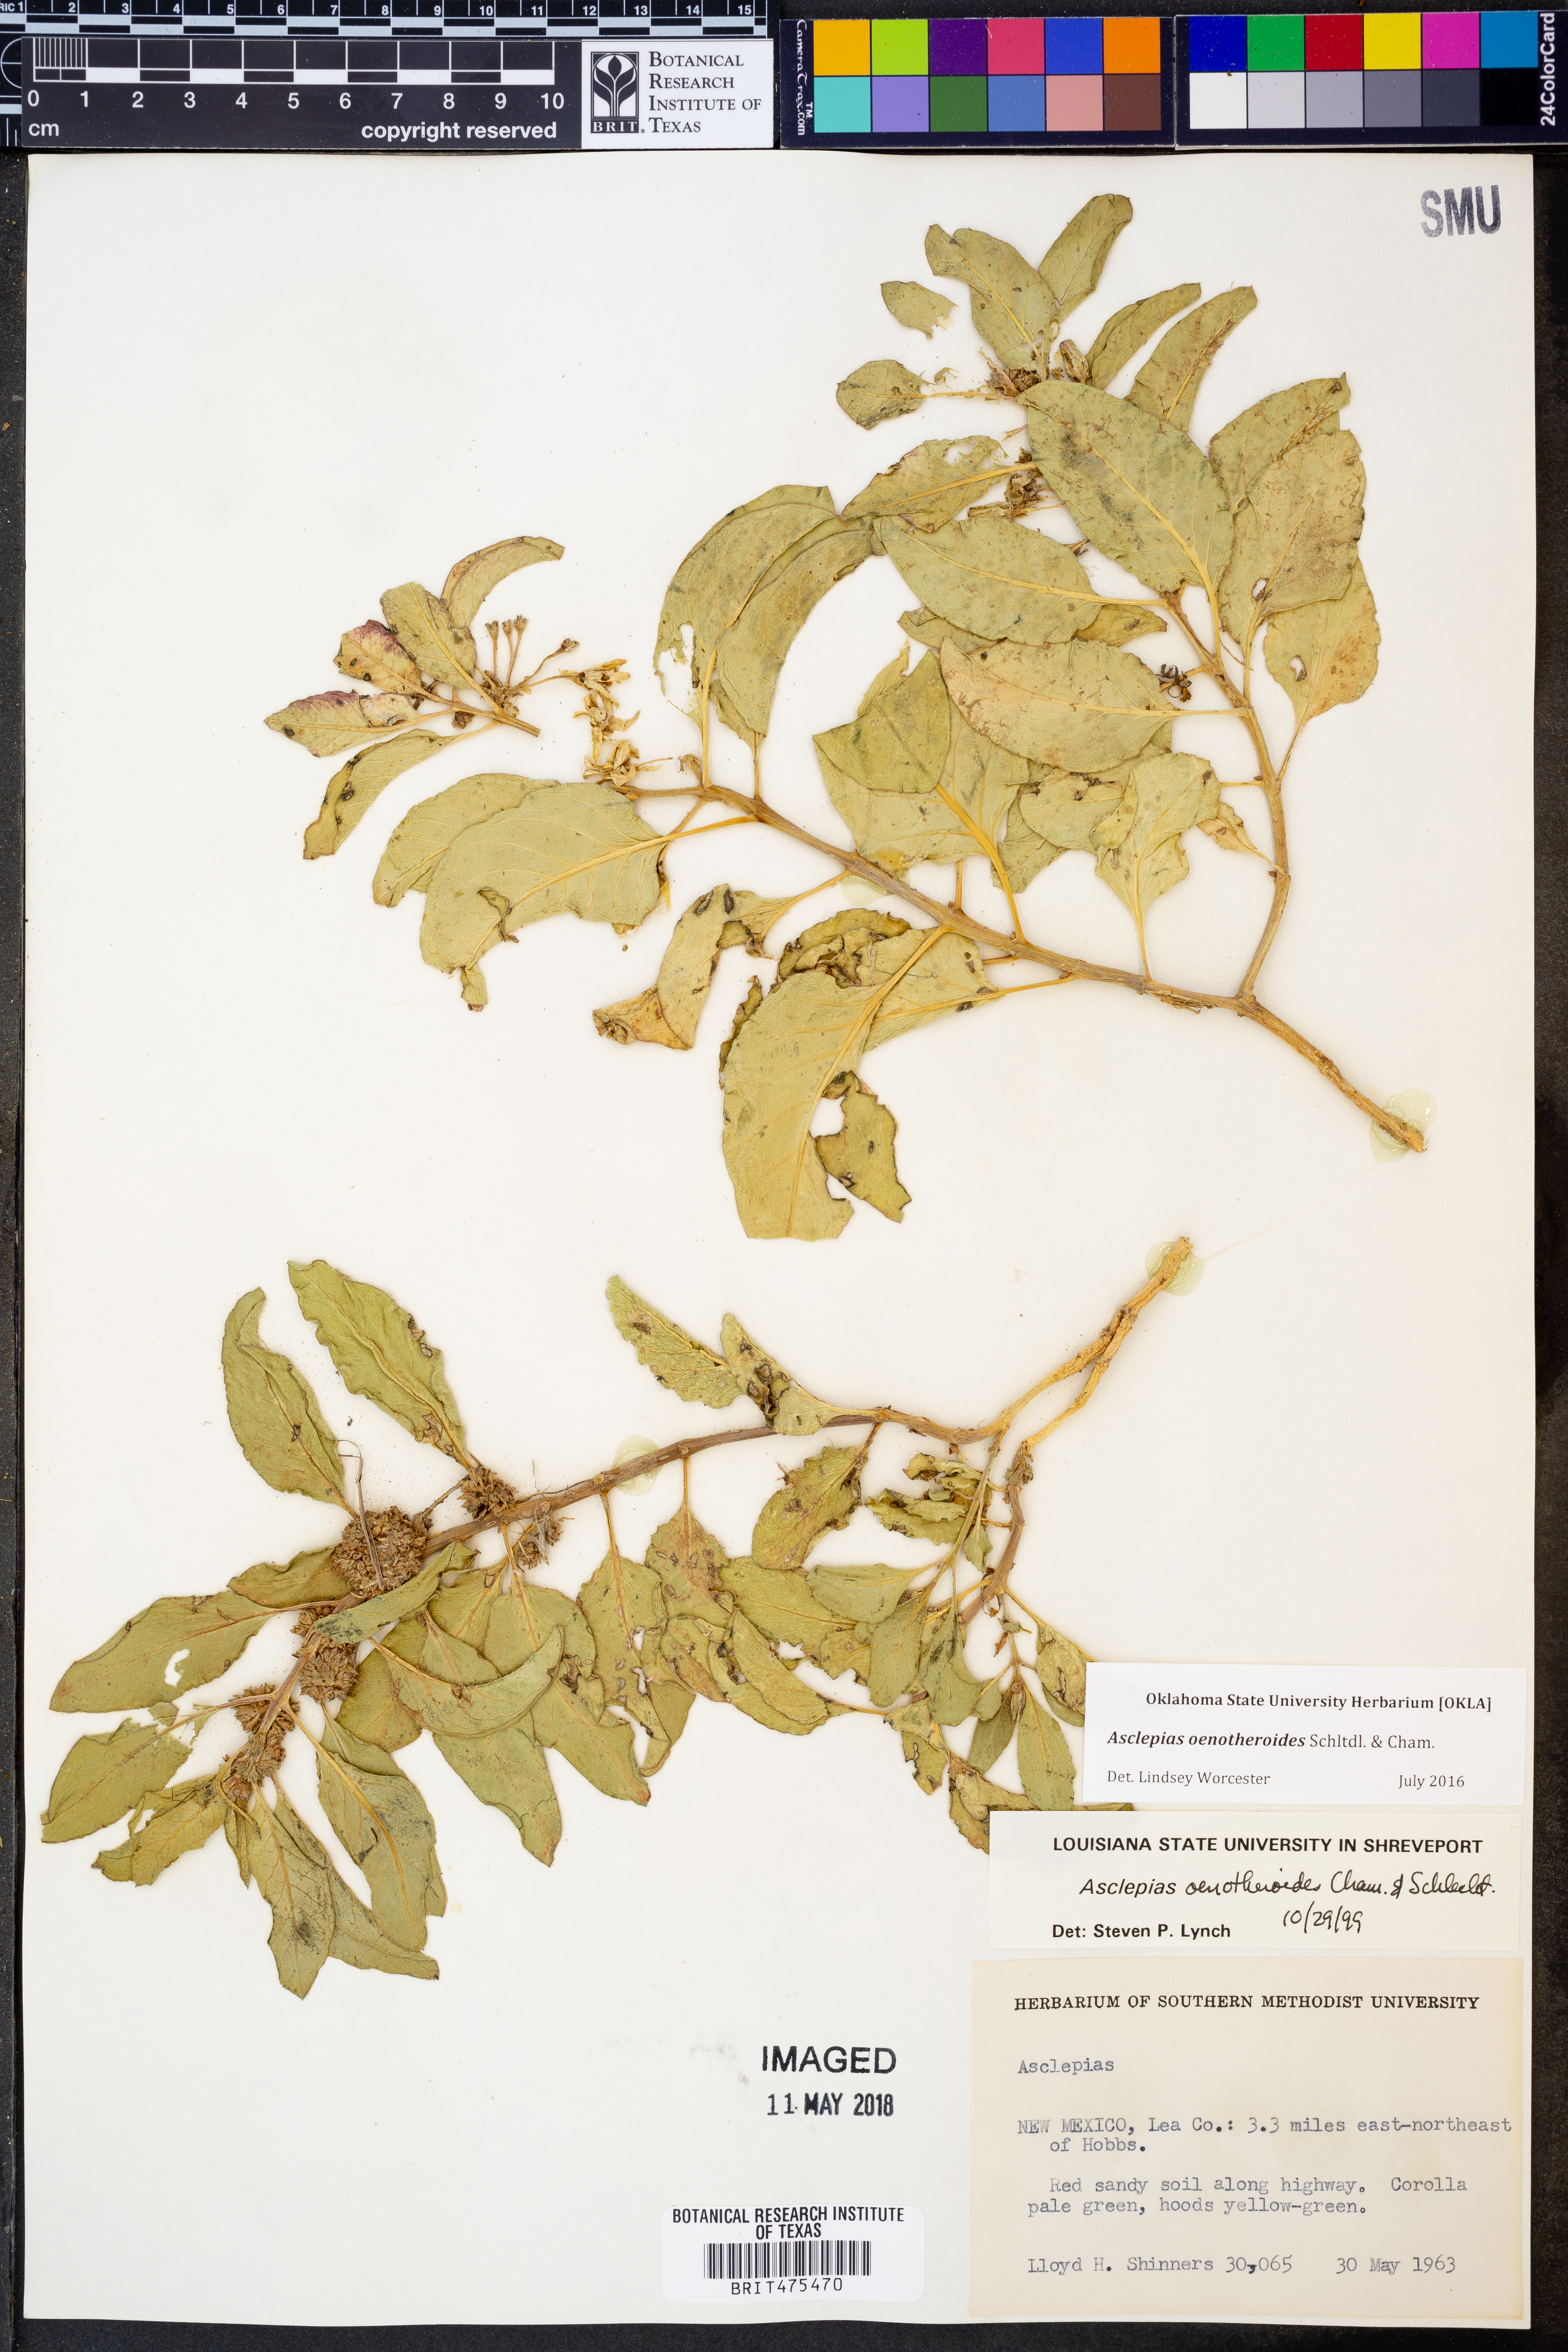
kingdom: Plantae
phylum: Tracheophyta
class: Magnoliopsida
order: Gentianales
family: Apocynaceae
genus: Asclepias
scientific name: Asclepias oenotheroides
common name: Zizotes milkweed
